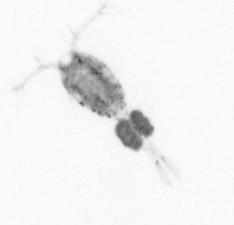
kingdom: Animalia
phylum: Arthropoda
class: Copepoda
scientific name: Copepoda
